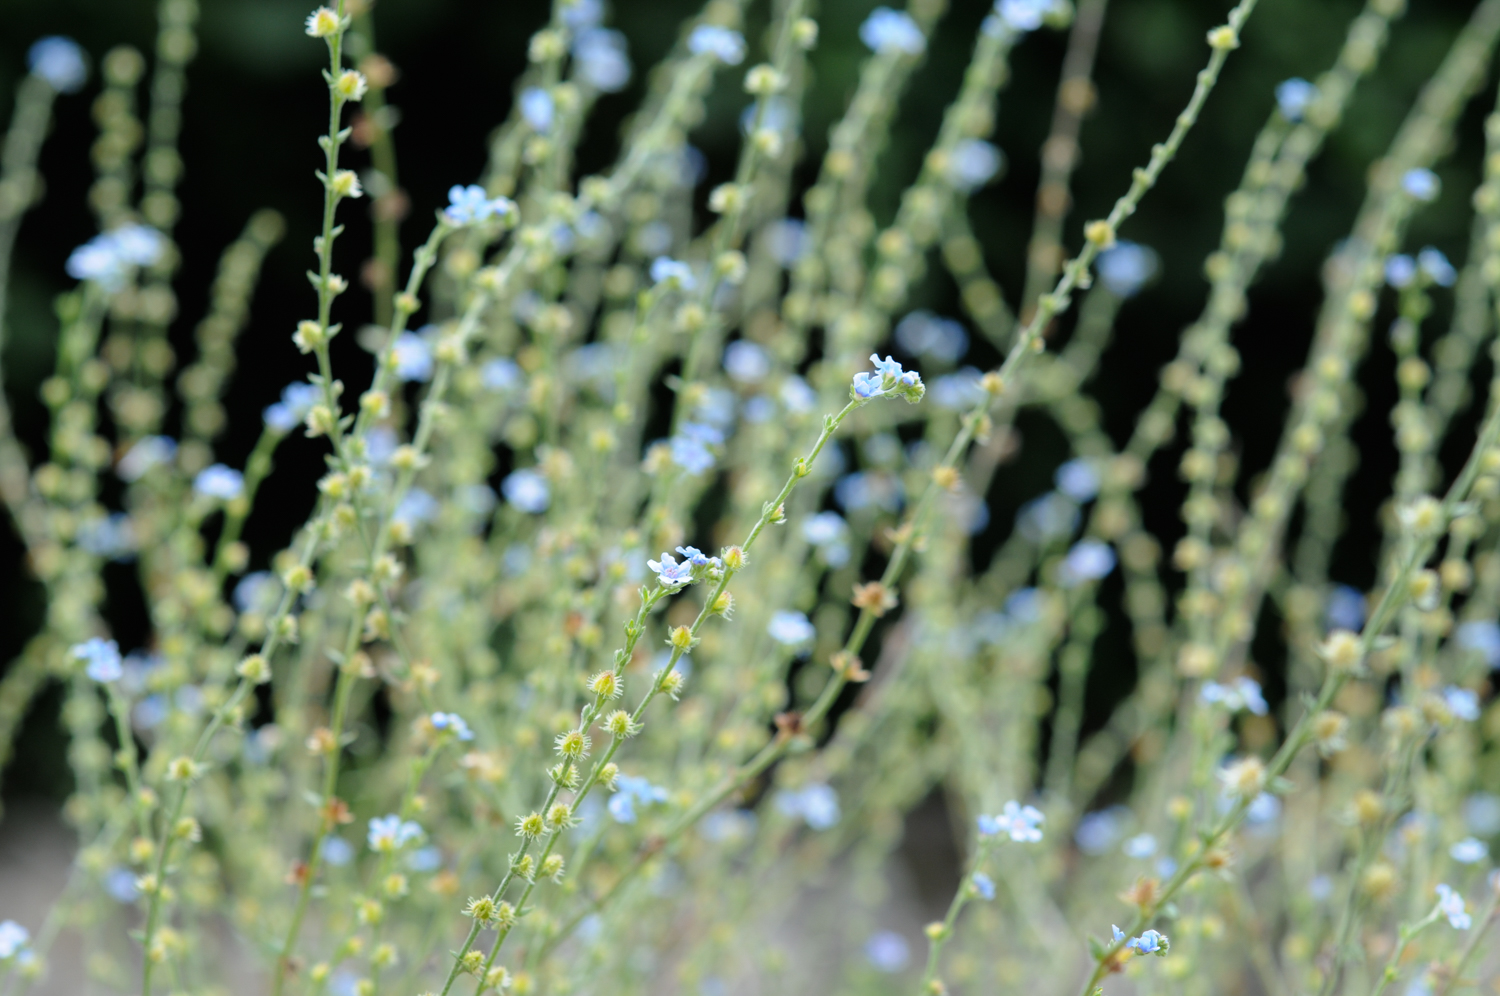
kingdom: Plantae
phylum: Tracheophyta
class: Magnoliopsida
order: Boraginales
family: Boraginaceae
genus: Lappula
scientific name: Lappula barbata
